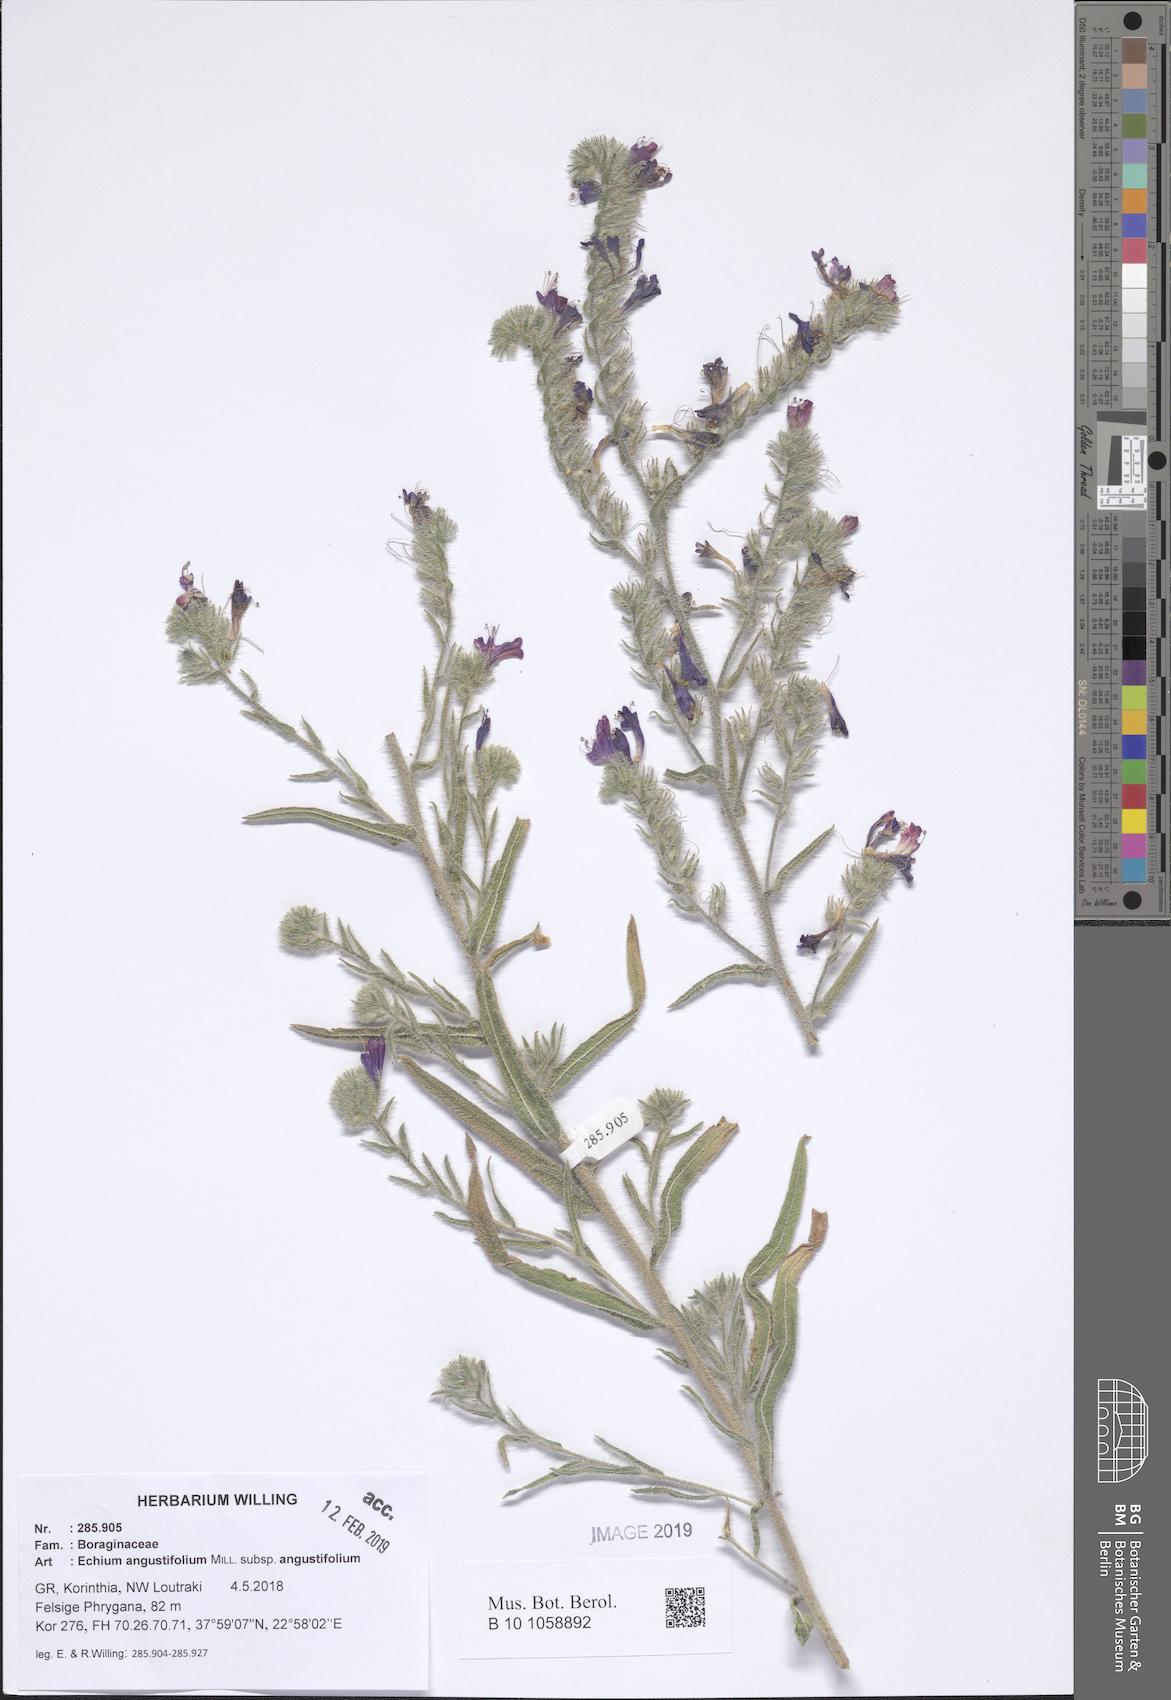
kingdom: Plantae
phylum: Tracheophyta
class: Magnoliopsida
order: Boraginales
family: Boraginaceae
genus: Echium
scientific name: Echium angustifolium
